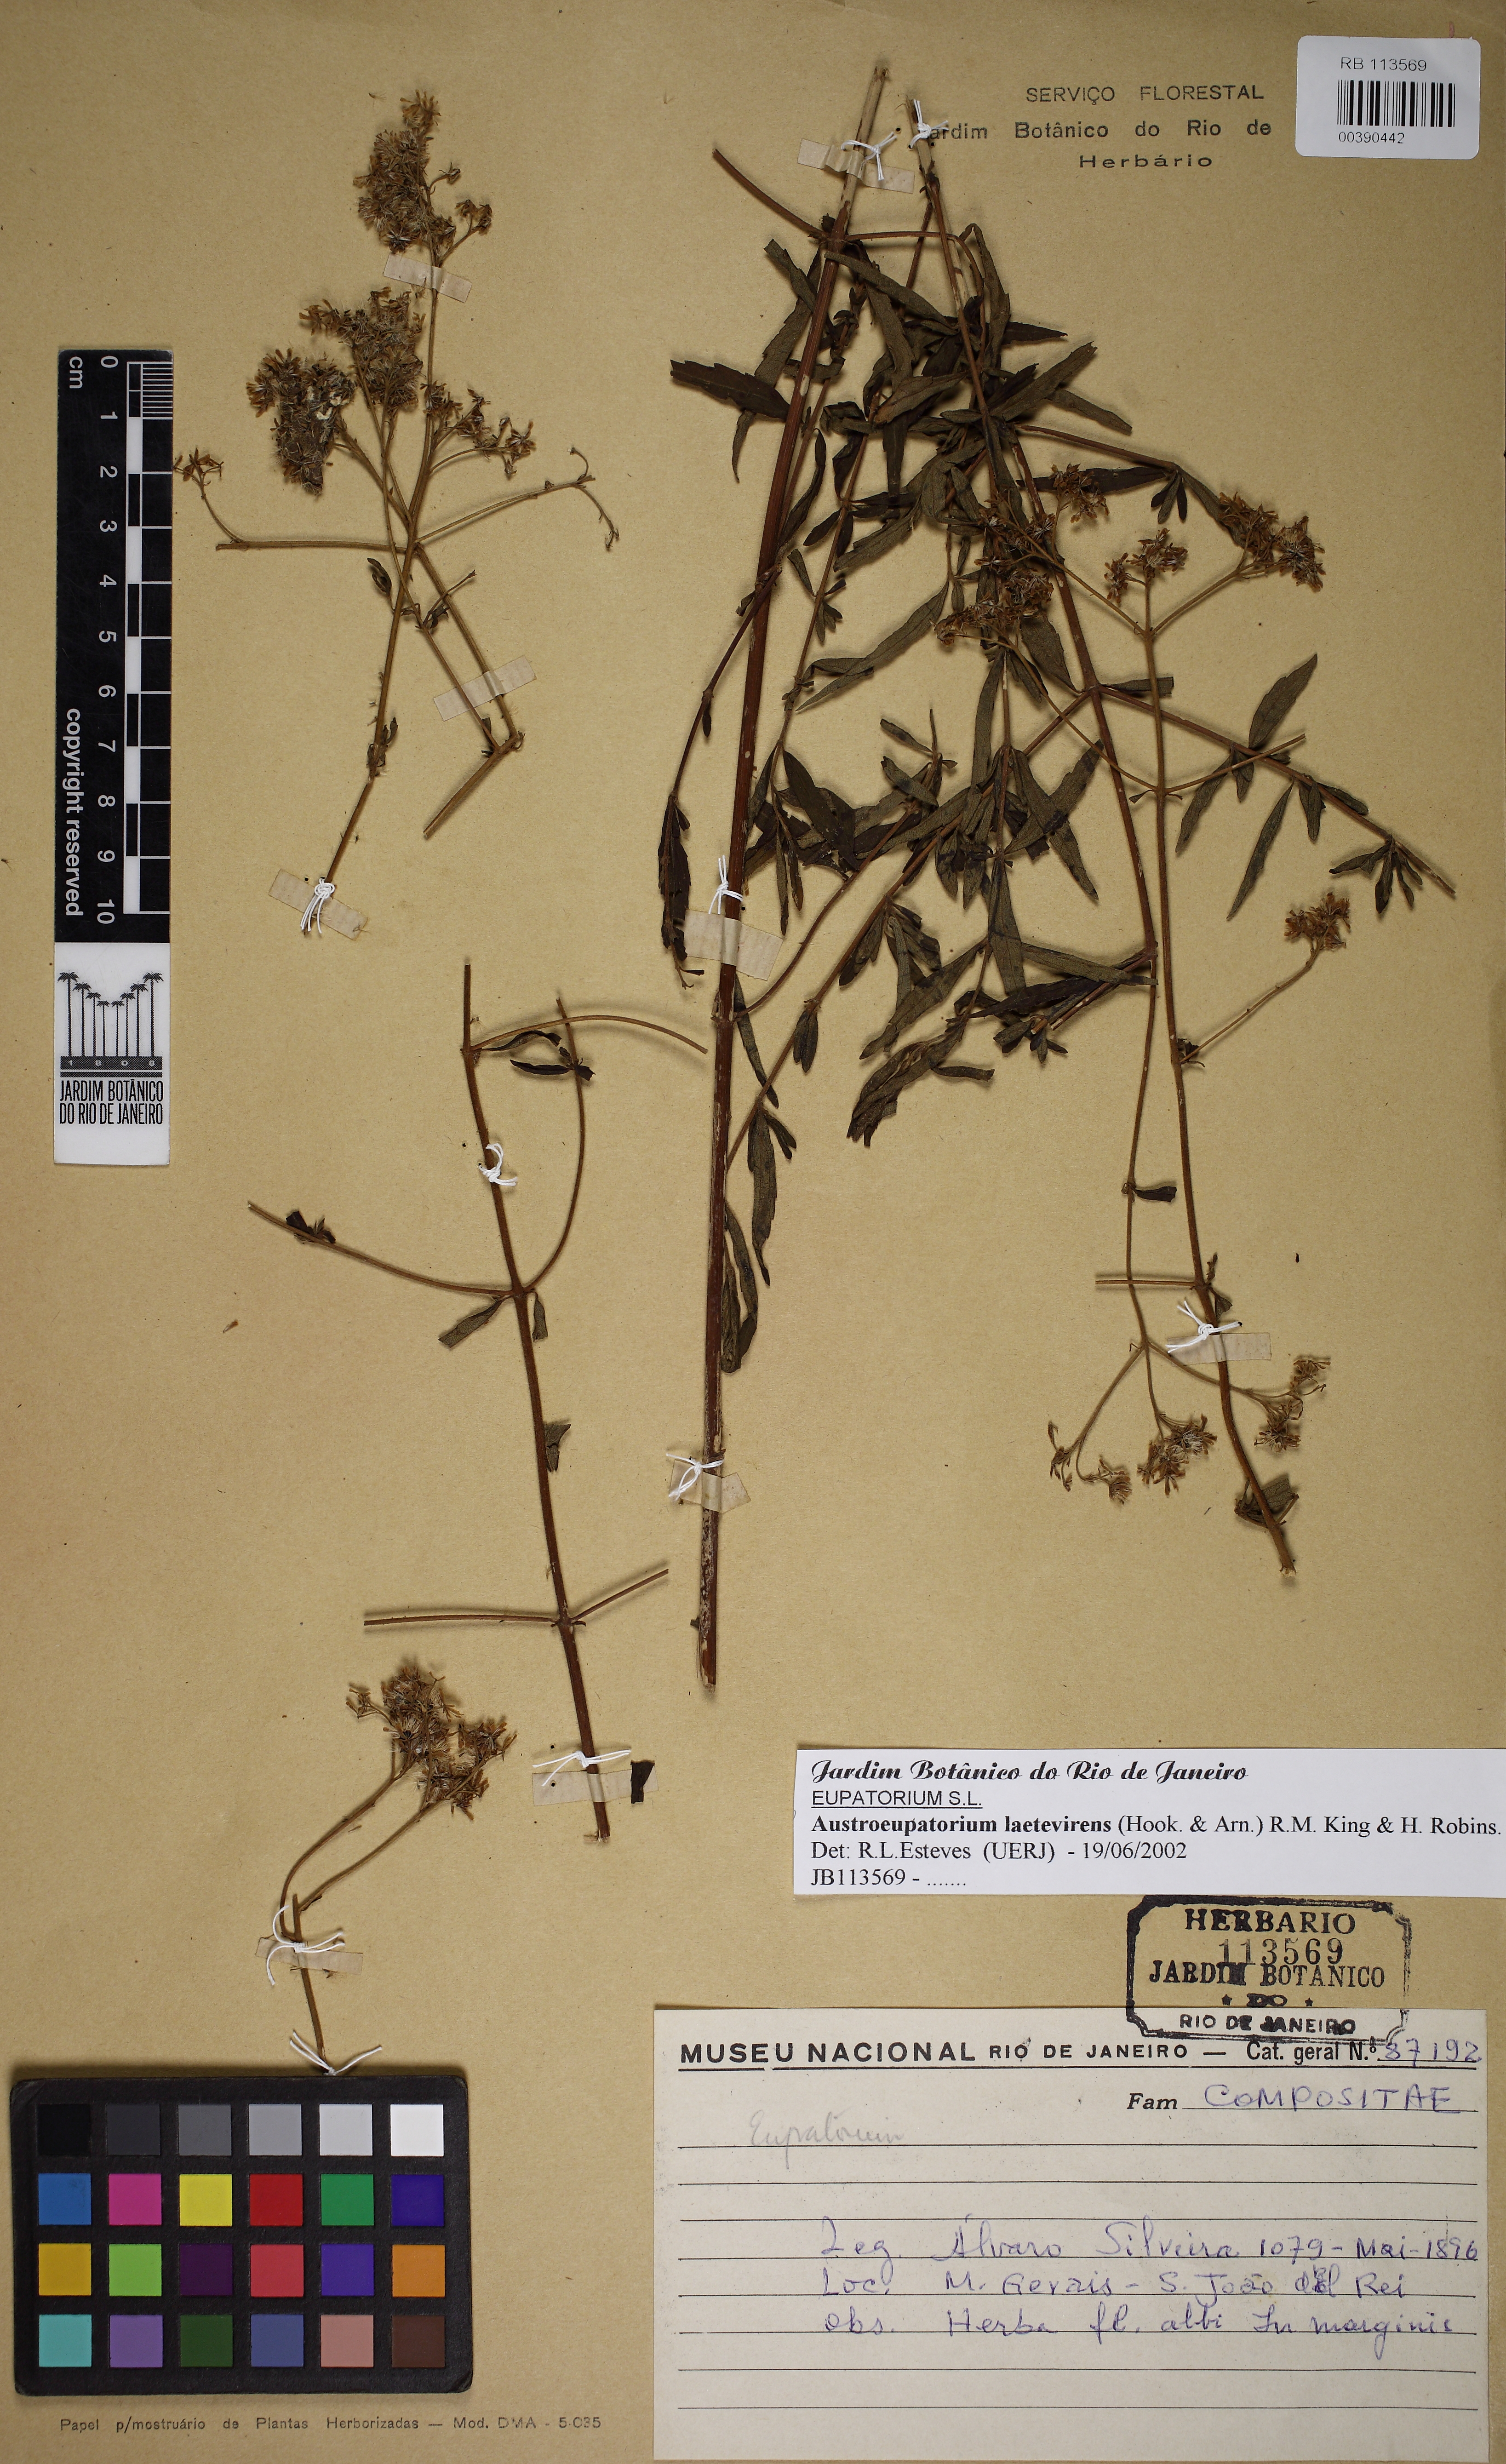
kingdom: Plantae
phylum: Tracheophyta
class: Magnoliopsida
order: Asterales
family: Asteraceae
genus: Austroeupatorium
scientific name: Austroeupatorium laetevirens
